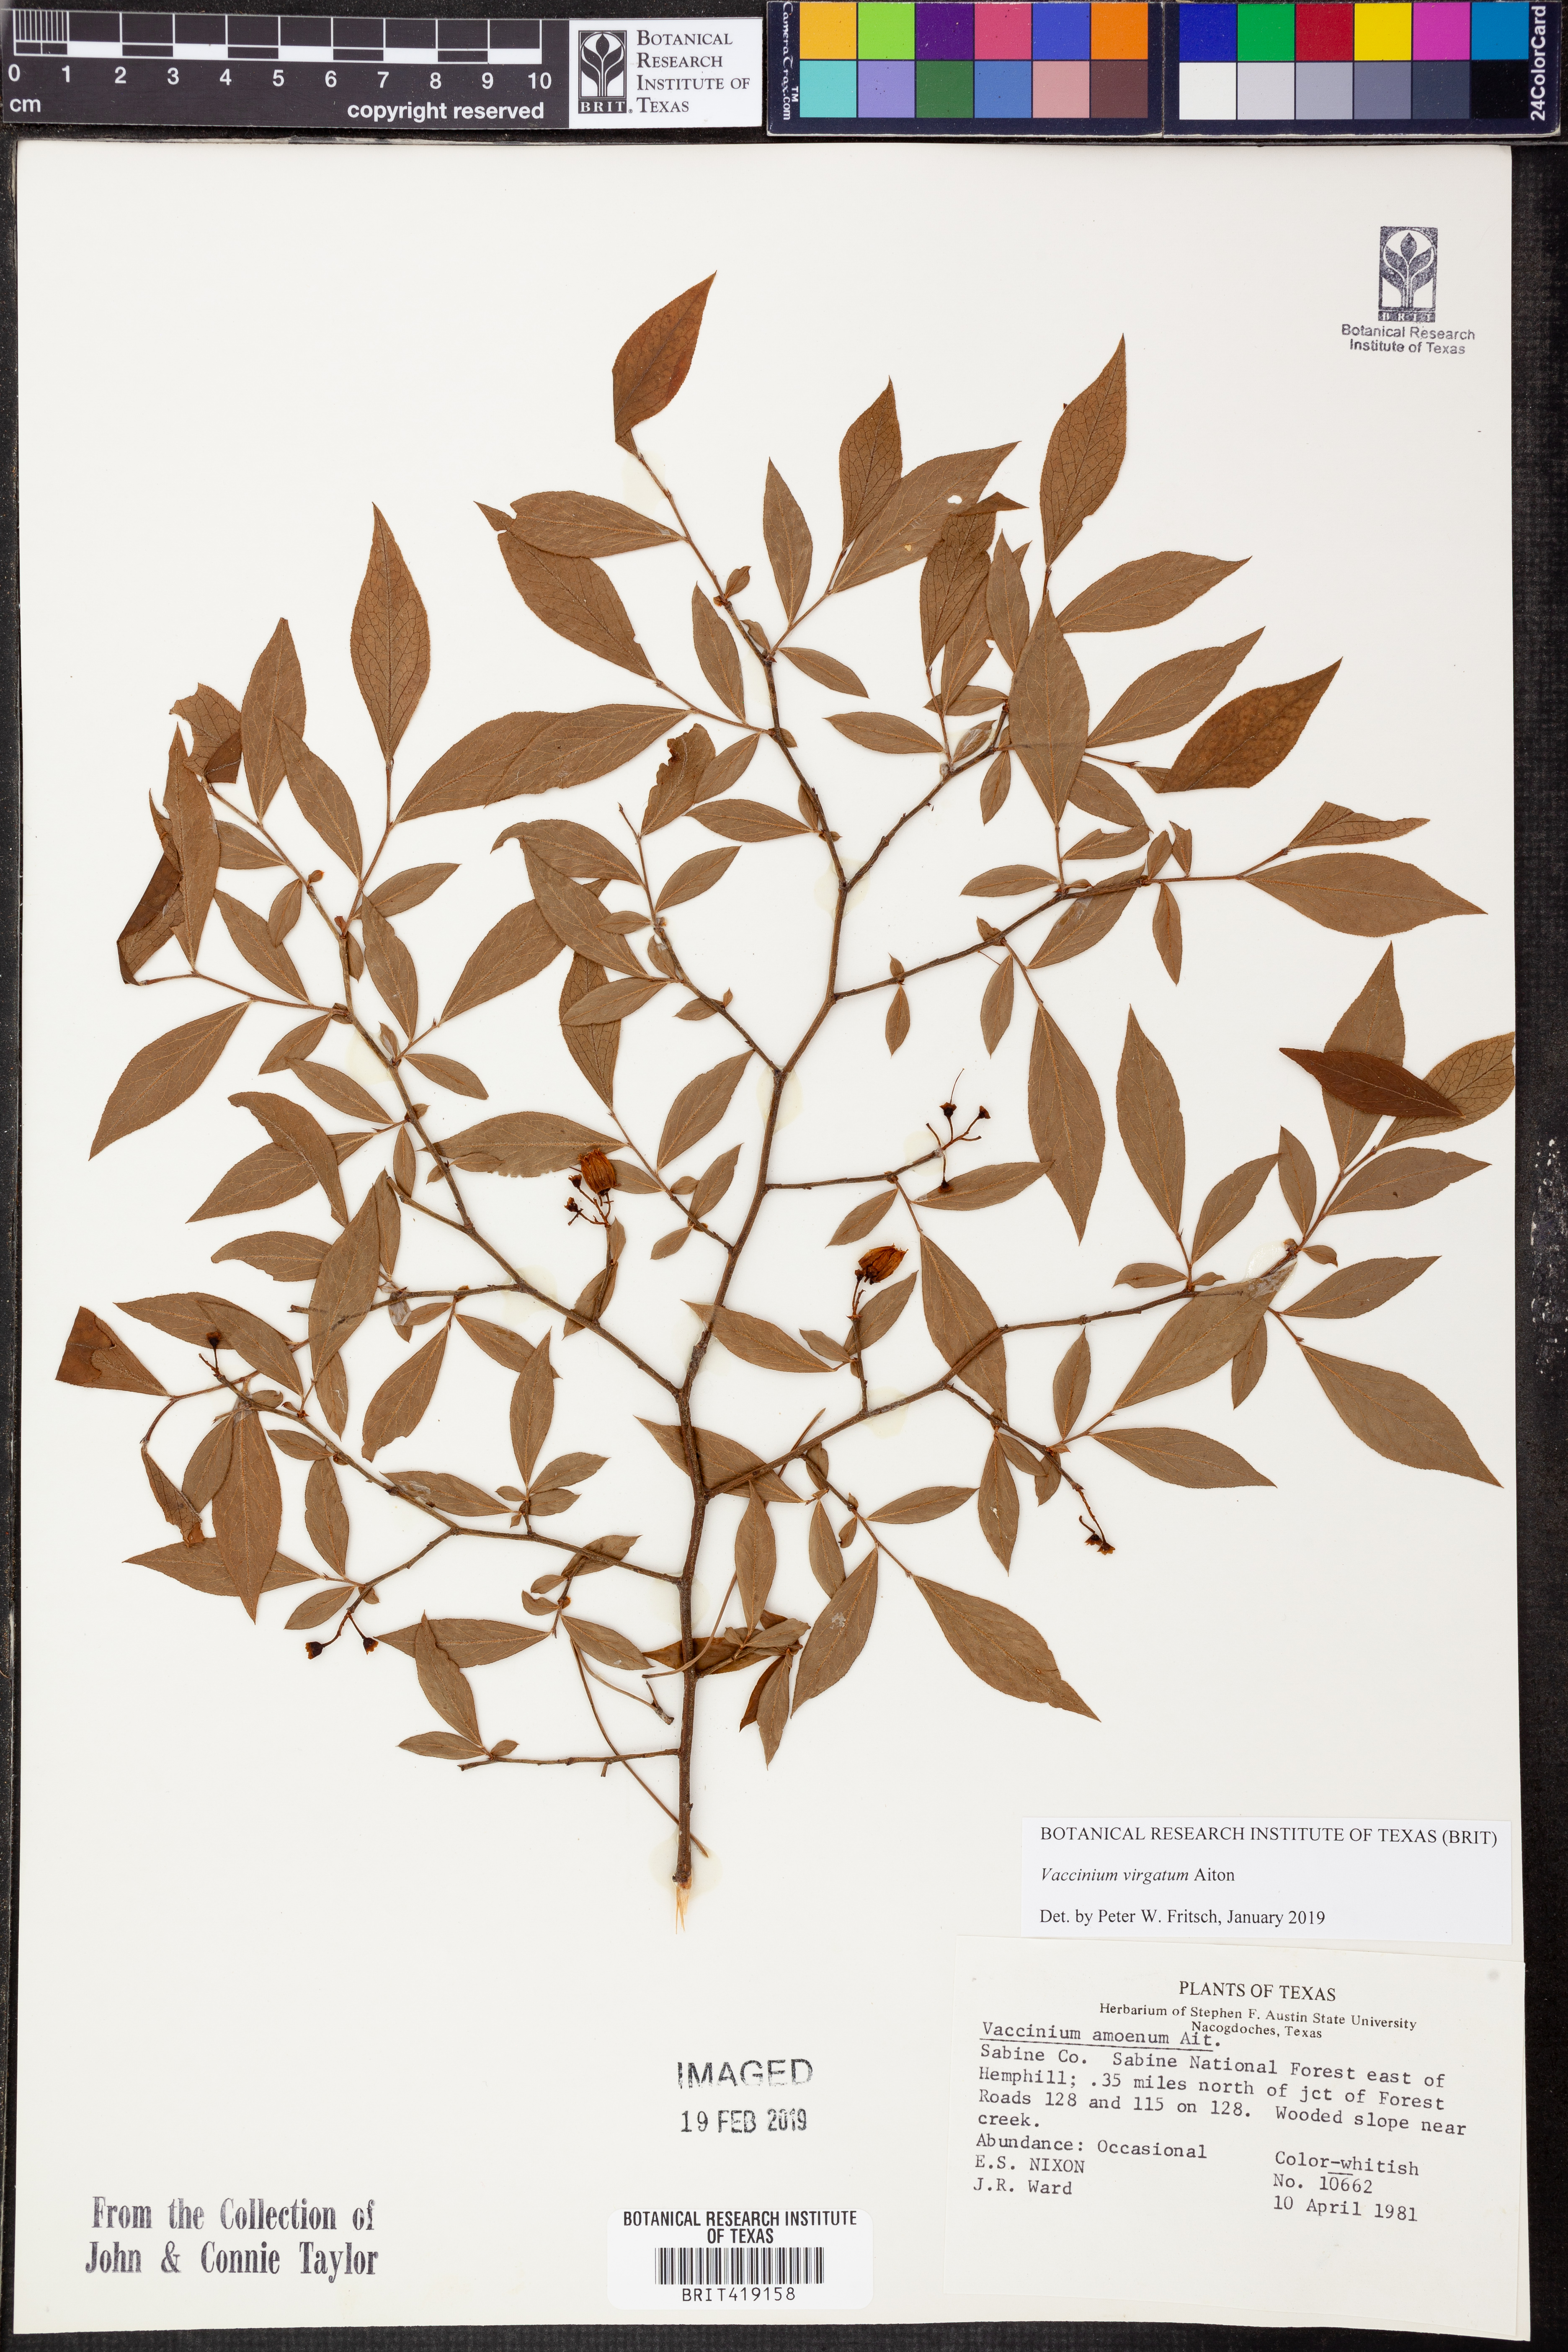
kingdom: Plantae
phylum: Tracheophyta
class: Magnoliopsida
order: Ericales
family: Ericaceae
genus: Vaccinium
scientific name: Vaccinium corymbosum
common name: Blueberry
